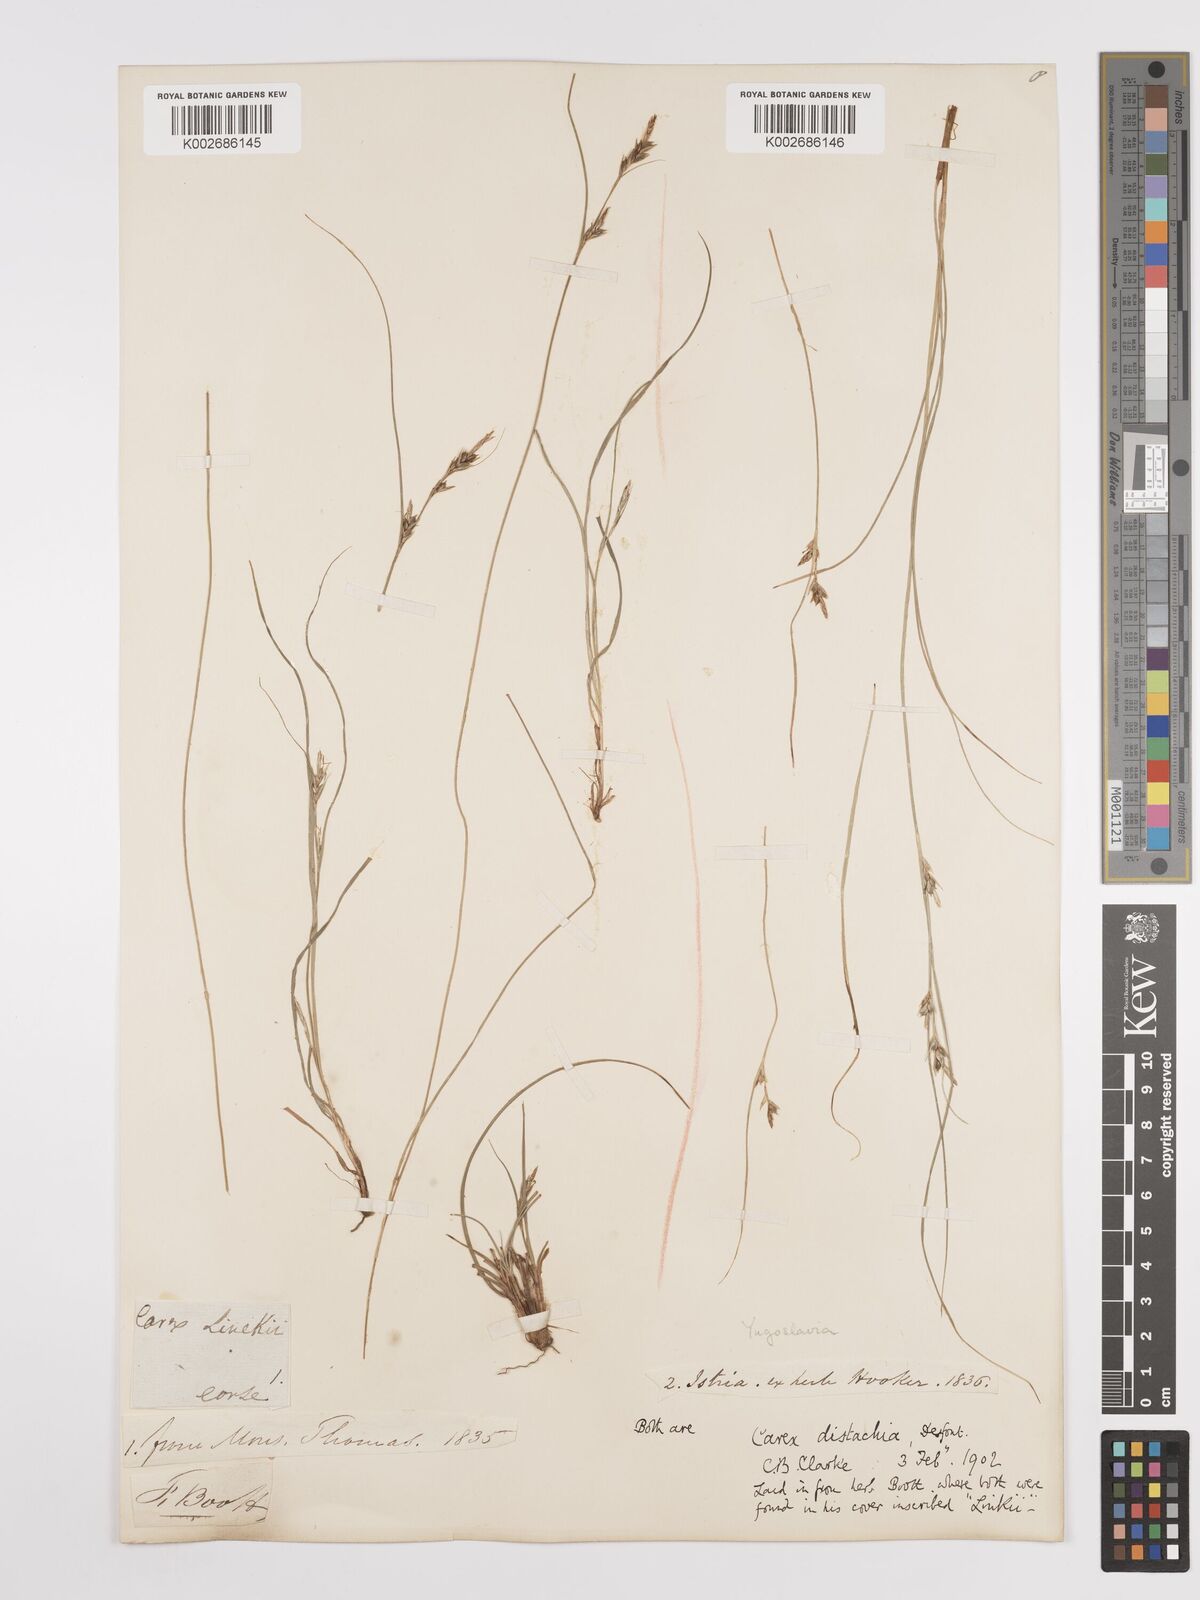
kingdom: Plantae
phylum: Tracheophyta
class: Liliopsida
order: Poales
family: Cyperaceae
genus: Carex
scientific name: Carex distachya
